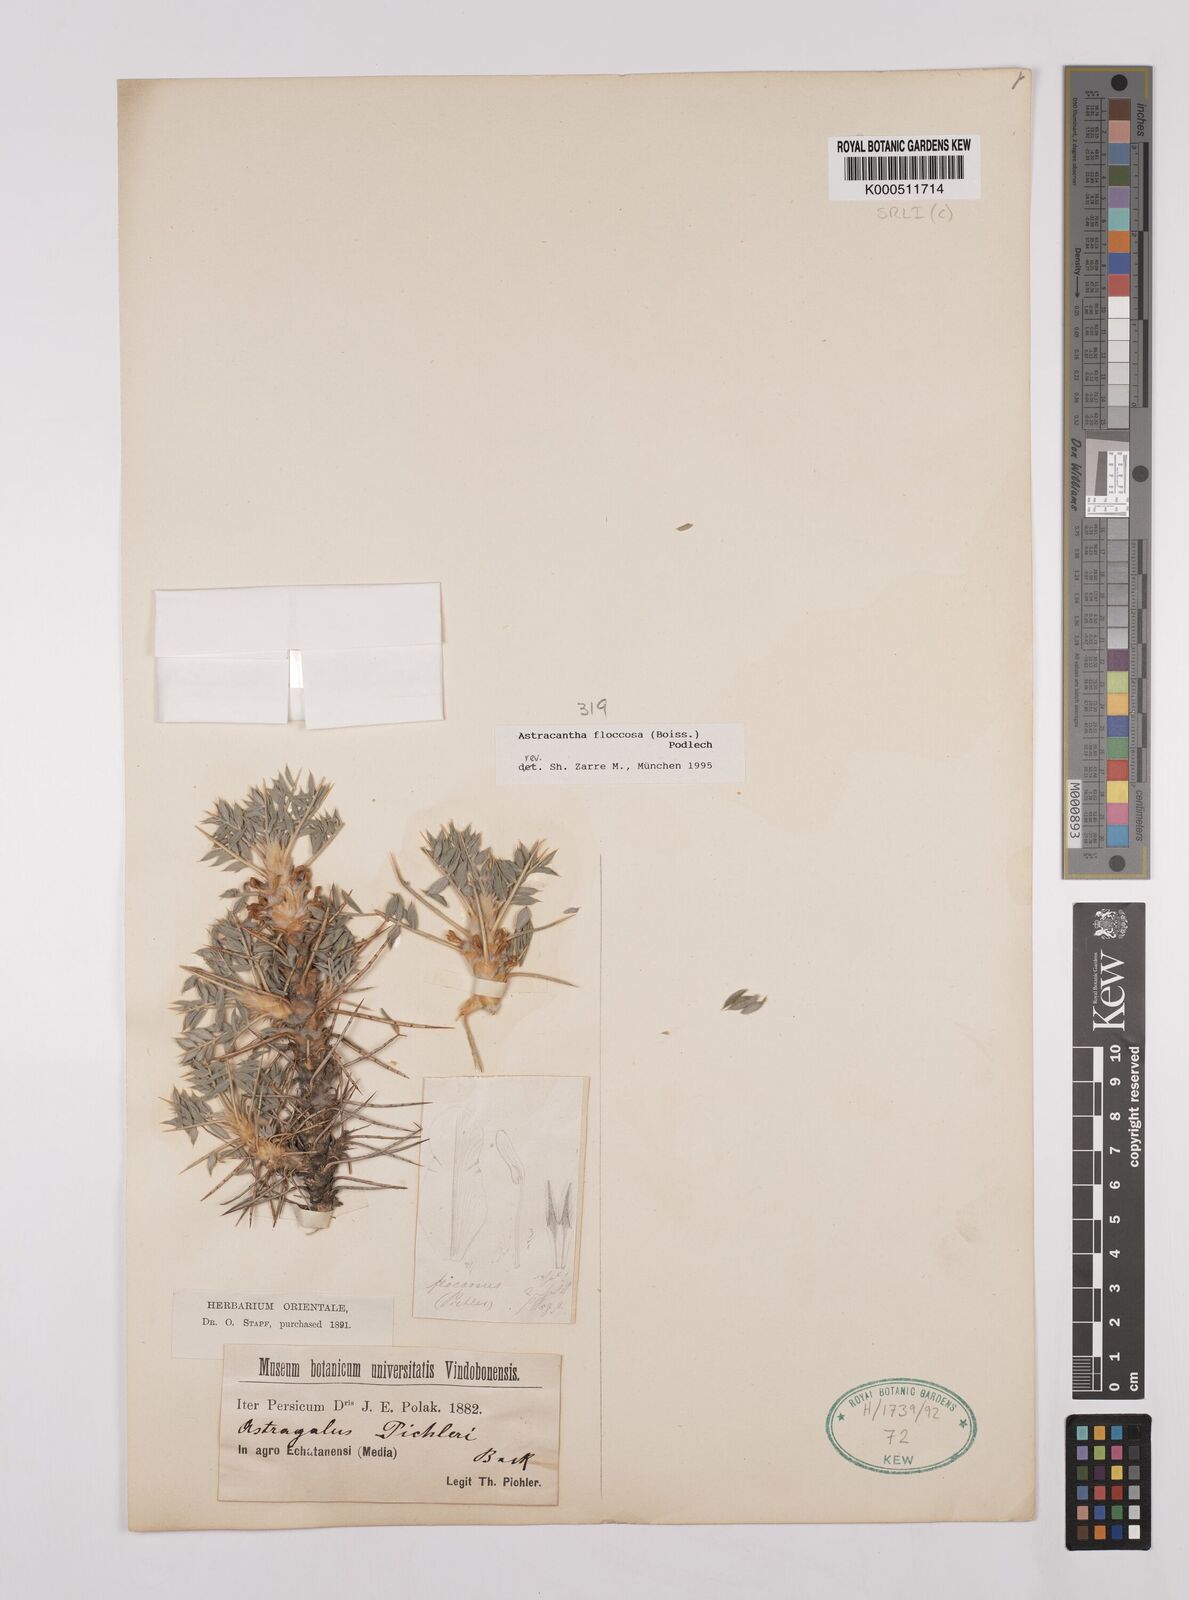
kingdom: Plantae
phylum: Tracheophyta
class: Magnoliopsida
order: Fabales
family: Fabaceae
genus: Astragalus
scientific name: Astragalus floccosus
